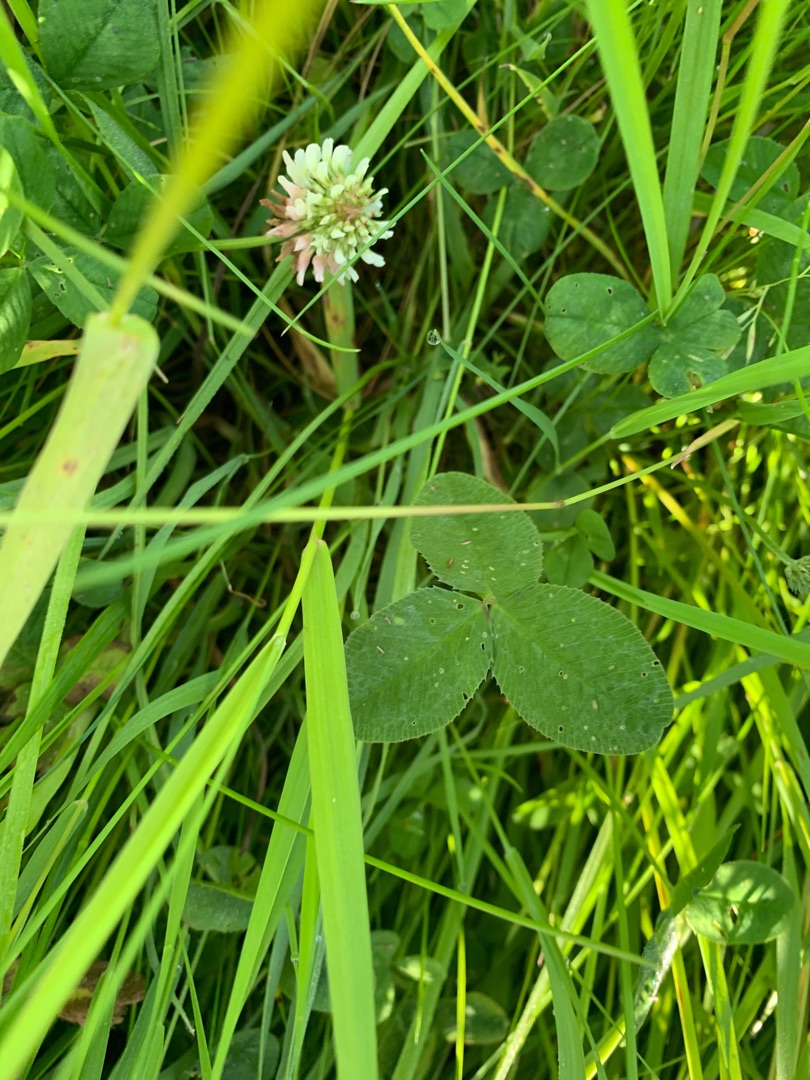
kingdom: Plantae
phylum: Tracheophyta
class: Magnoliopsida
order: Fabales
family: Fabaceae
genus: Trifolium
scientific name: Trifolium repens
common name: Hvid-kløver
